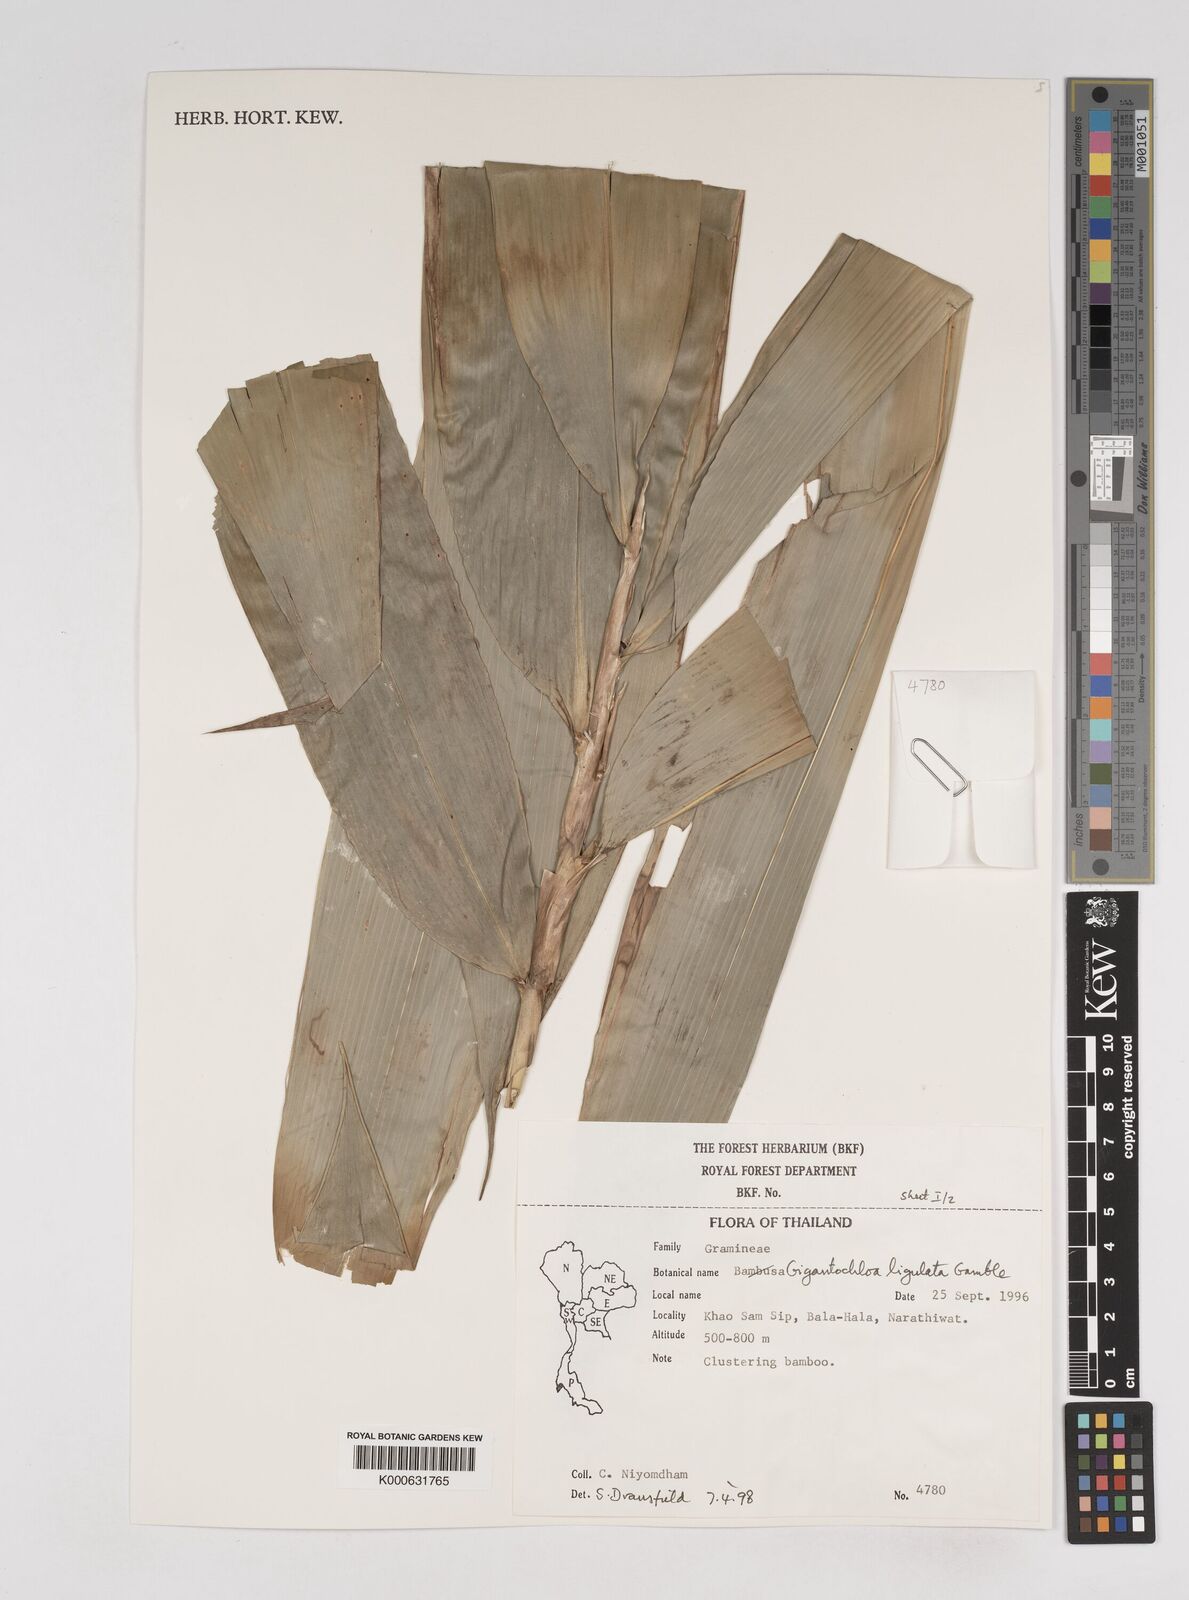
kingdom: Plantae
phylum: Tracheophyta
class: Liliopsida
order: Poales
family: Poaceae
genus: Gigantochloa
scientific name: Gigantochloa ligulata
